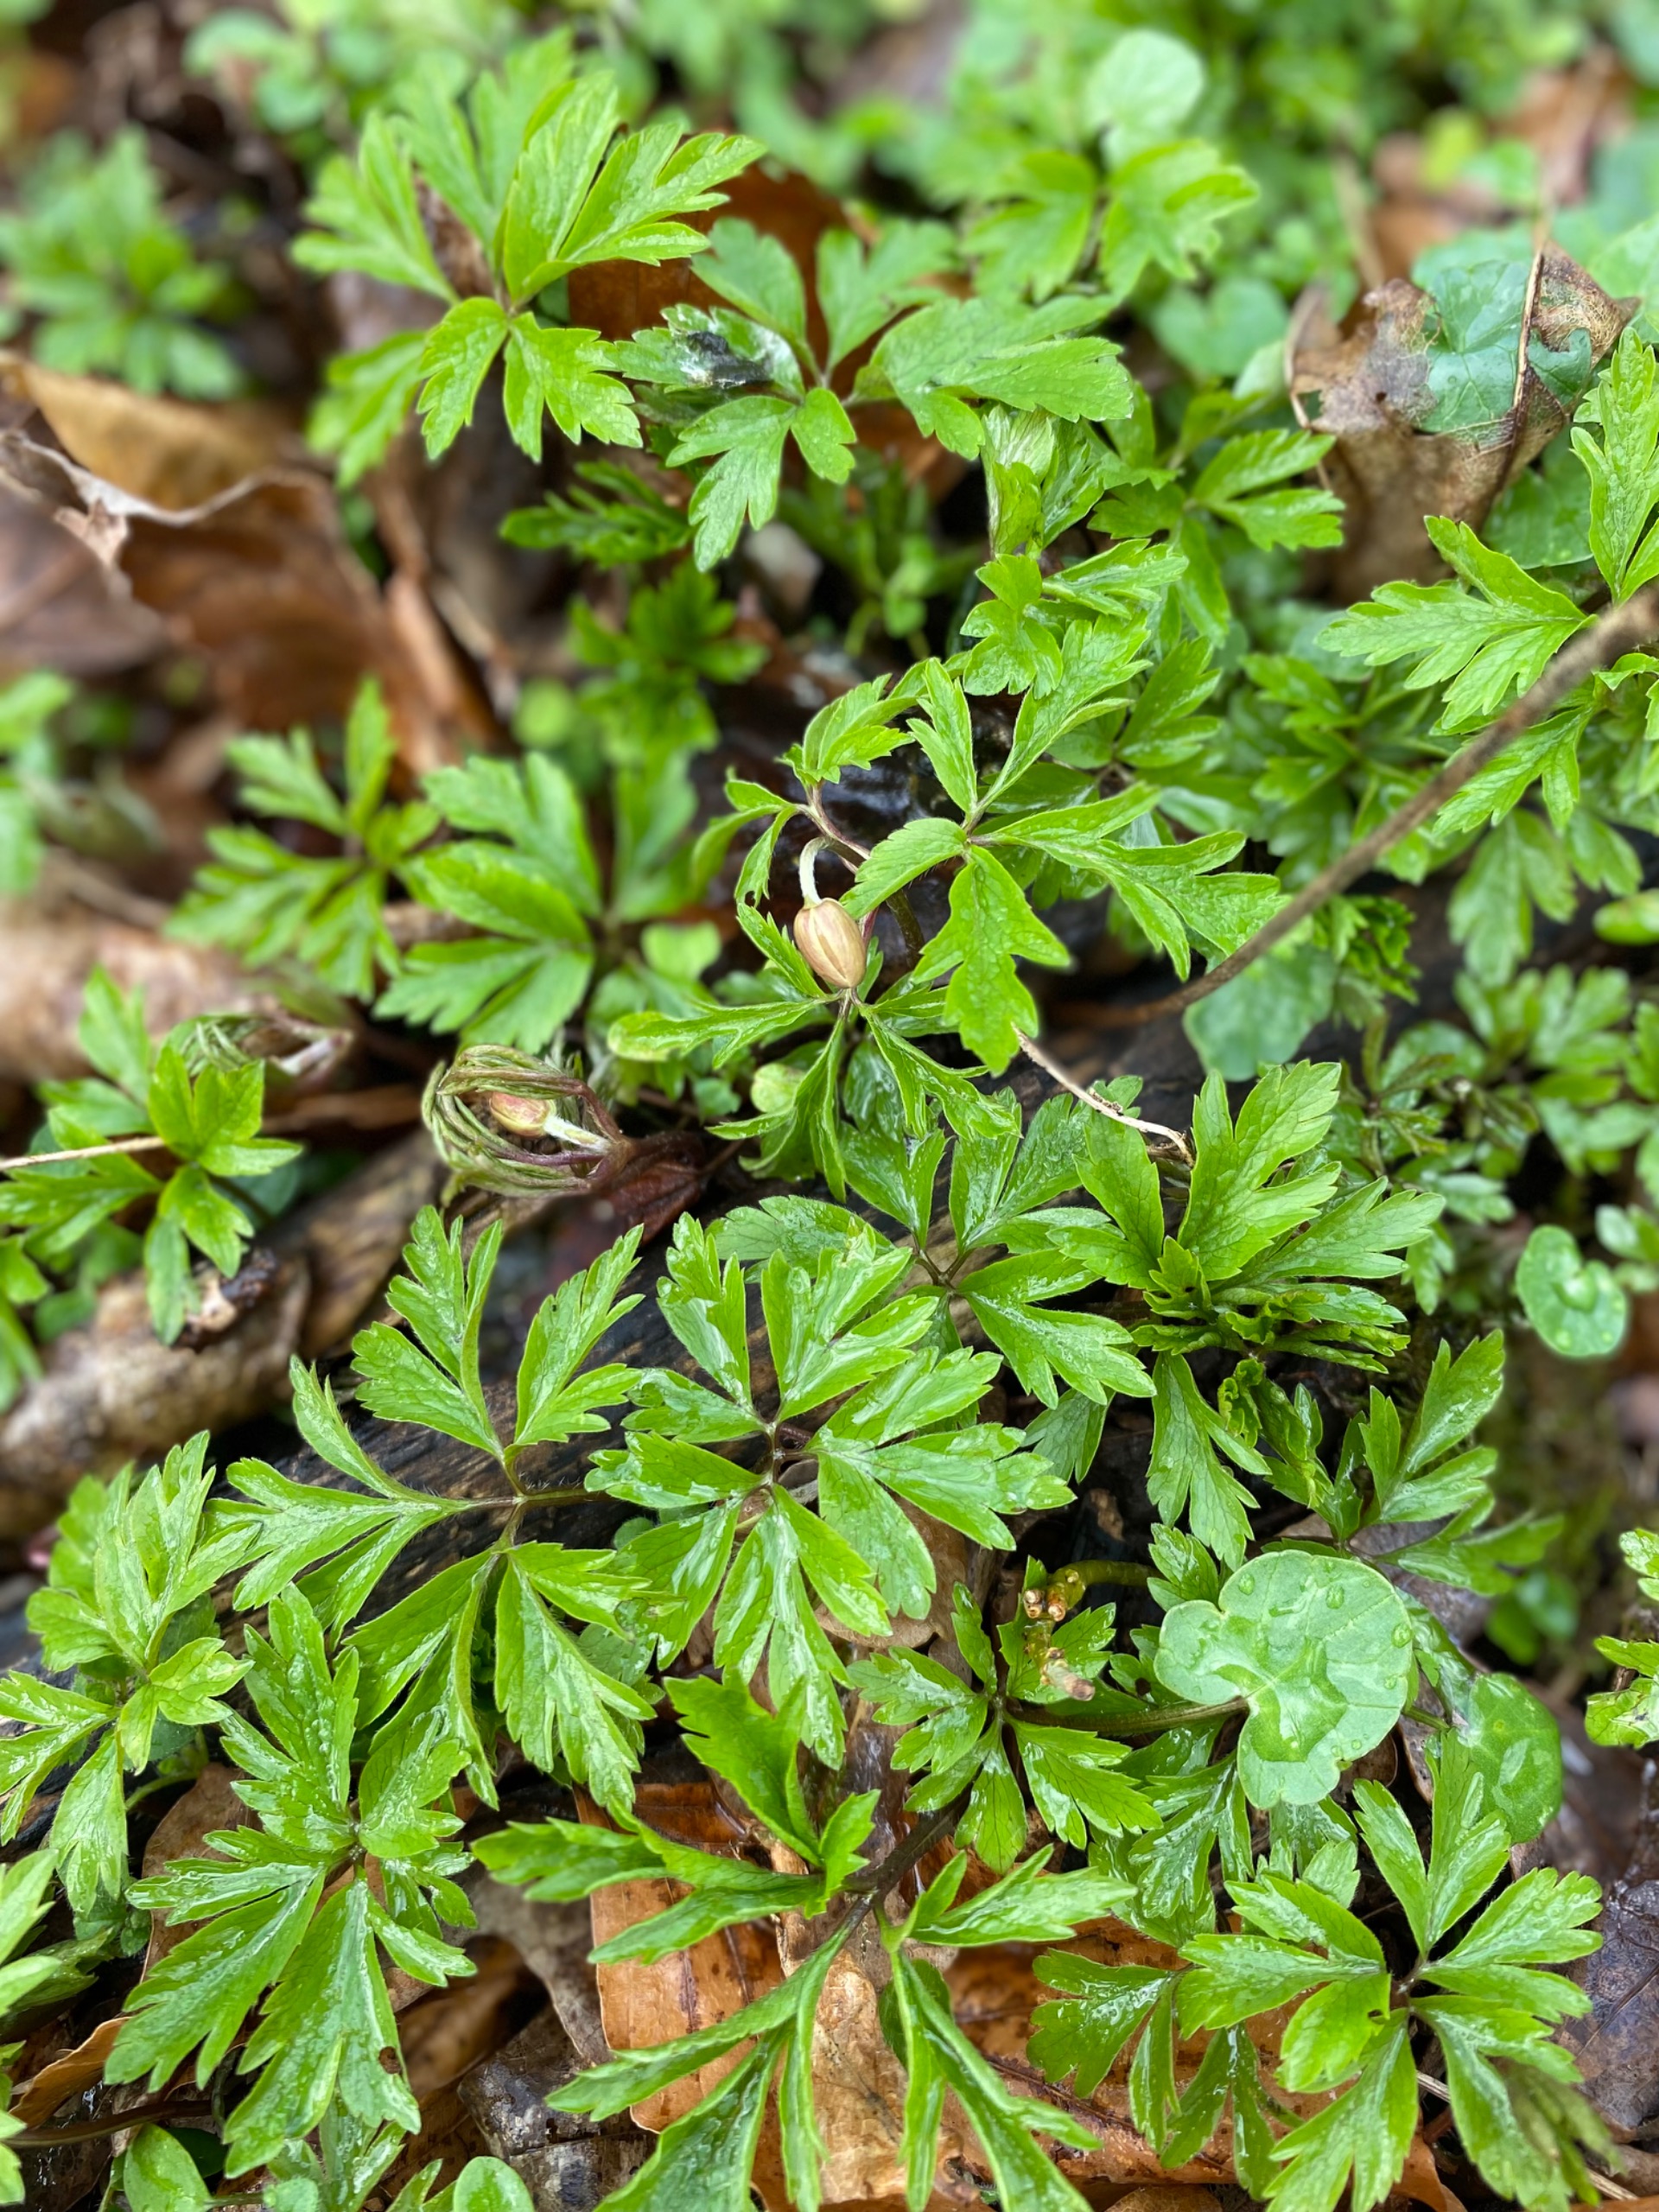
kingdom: Plantae
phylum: Tracheophyta
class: Magnoliopsida
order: Ranunculales
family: Ranunculaceae
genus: Anemone
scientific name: Anemone nemorosa
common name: Hvid anemone
